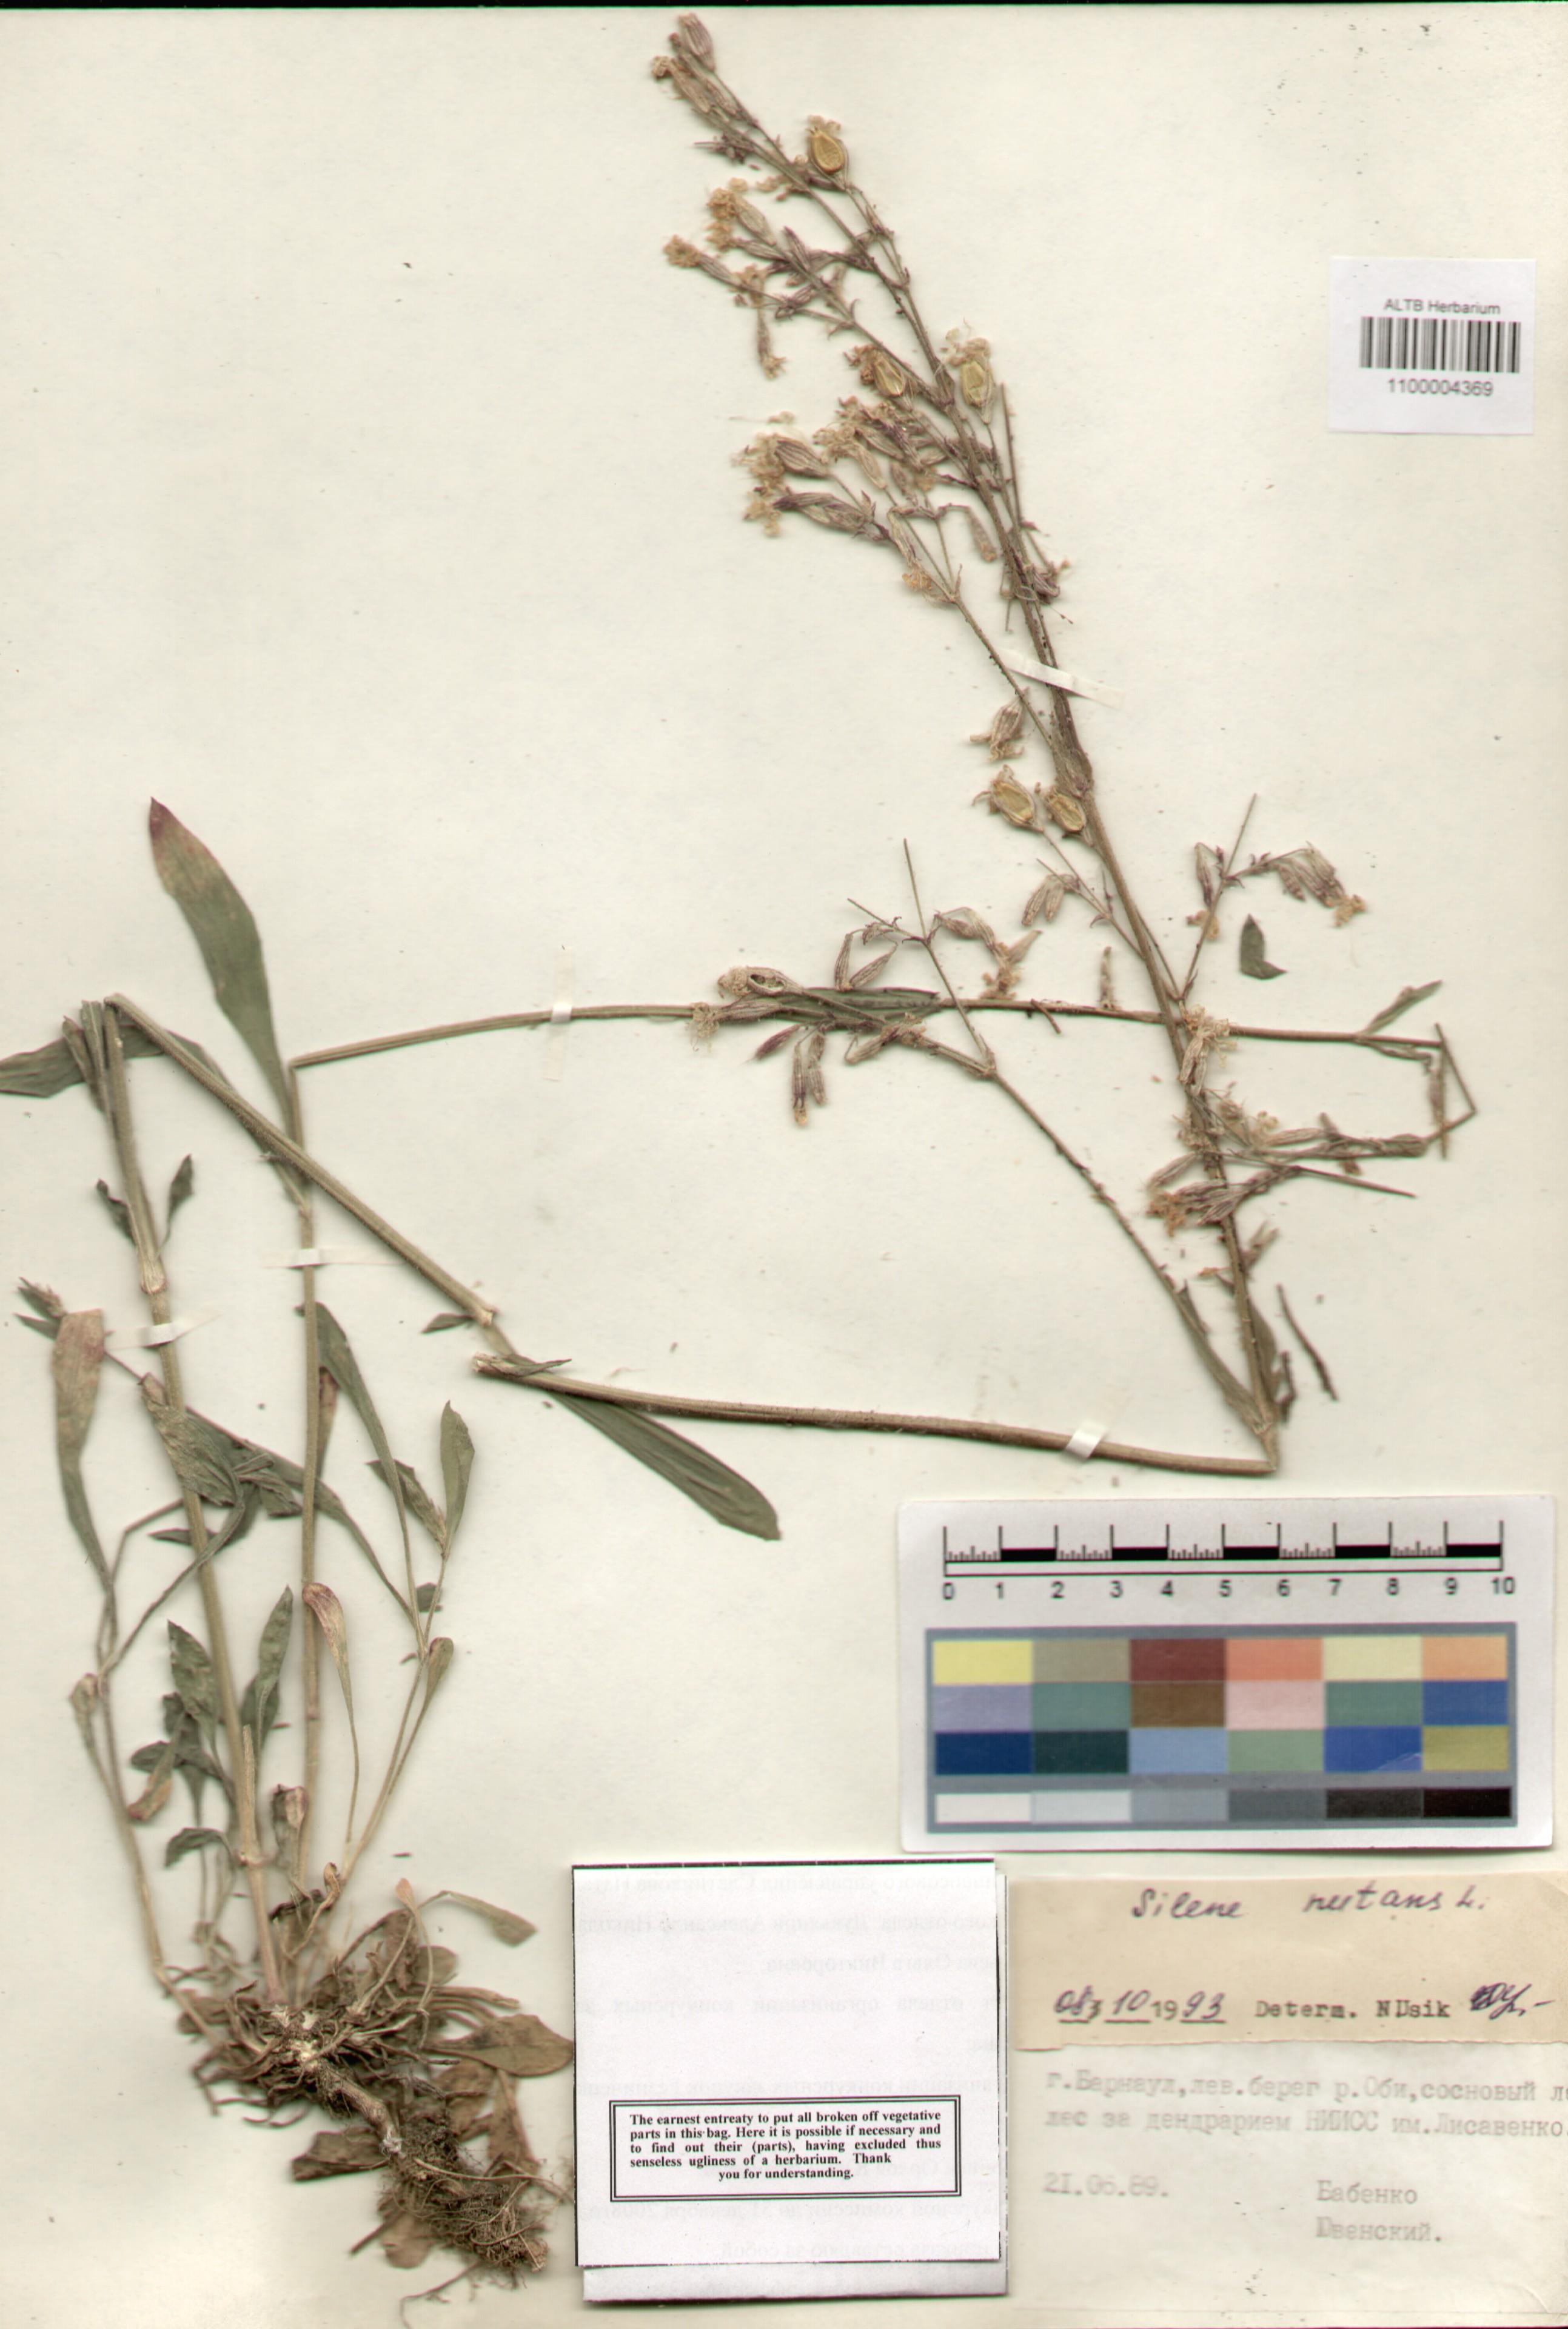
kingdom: Plantae
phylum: Tracheophyta
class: Magnoliopsida
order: Caryophyllales
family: Caryophyllaceae
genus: Silene
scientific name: Silene nutans
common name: Nottingham catchfly
